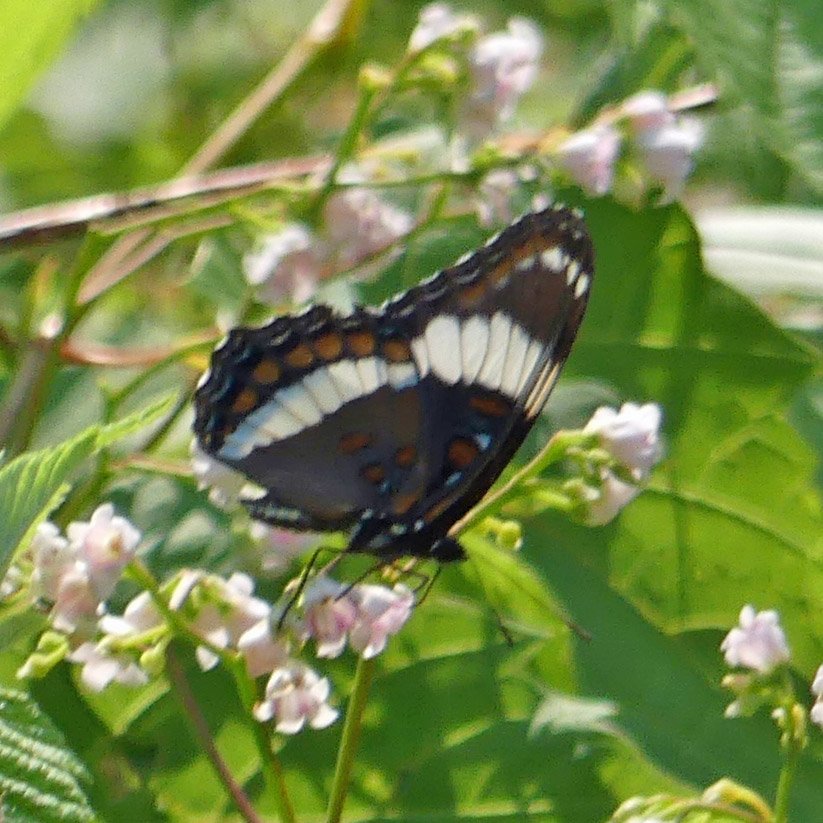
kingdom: Animalia
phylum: Arthropoda
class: Insecta
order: Lepidoptera
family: Nymphalidae
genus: Limenitis
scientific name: Limenitis arthemis
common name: Red-spotted Admiral
